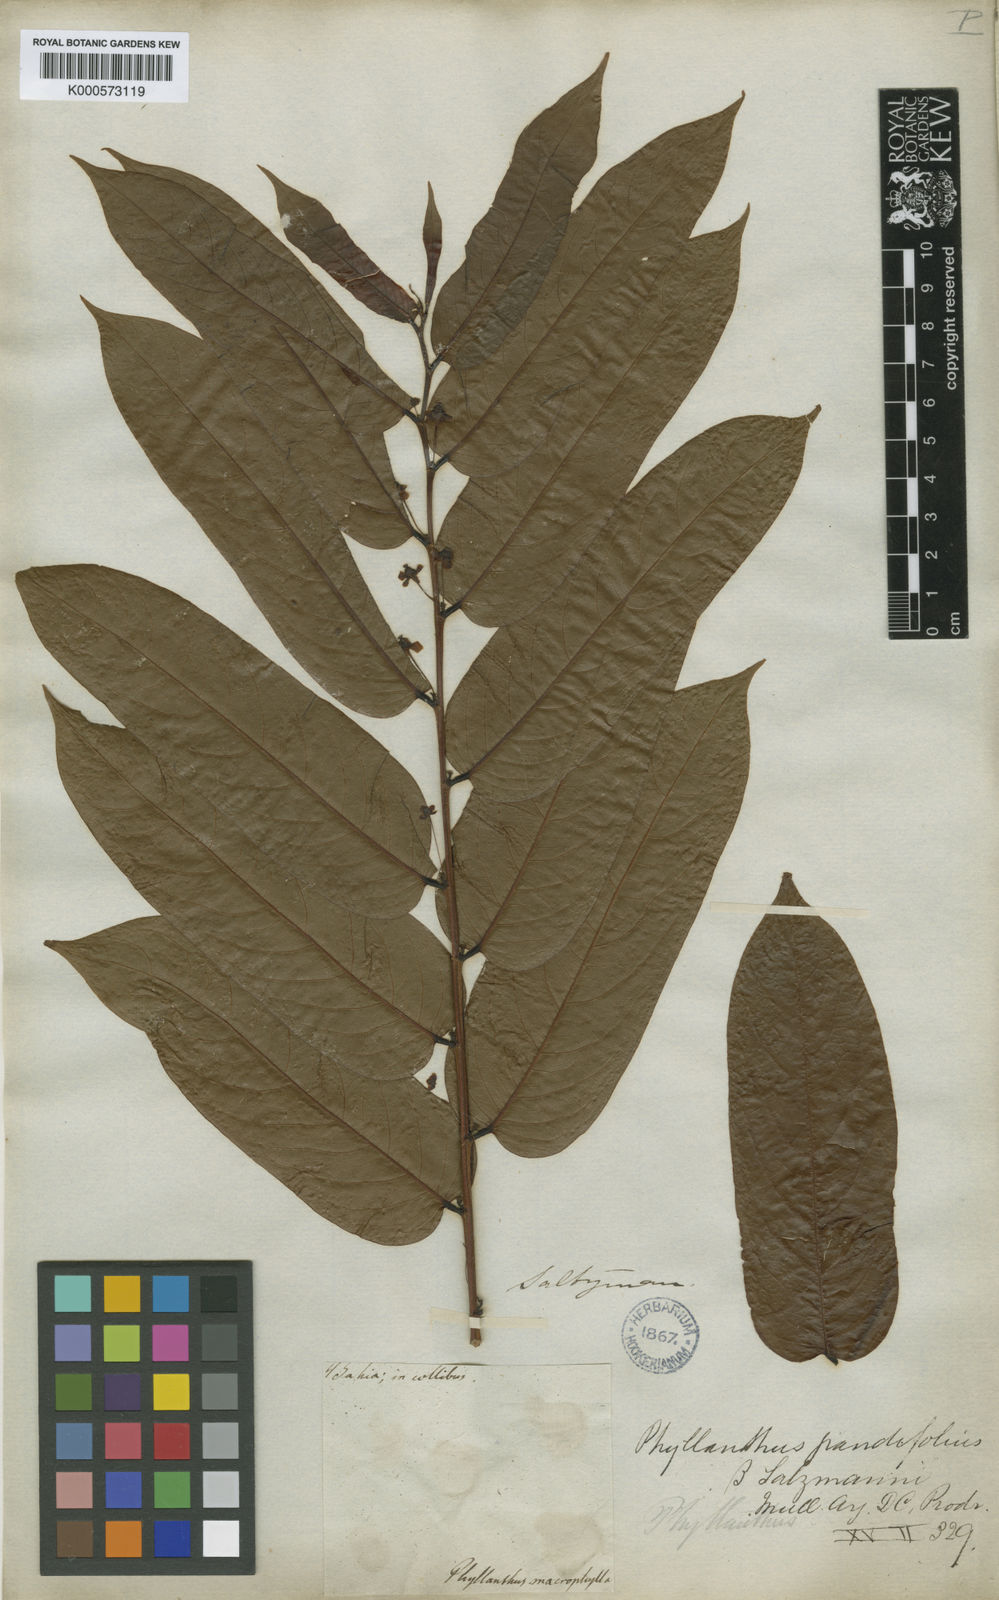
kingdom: Plantae
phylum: Tracheophyta
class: Magnoliopsida
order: Malpighiales
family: Phyllanthaceae
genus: Phyllanthus
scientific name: Phyllanthus juglandifolius
